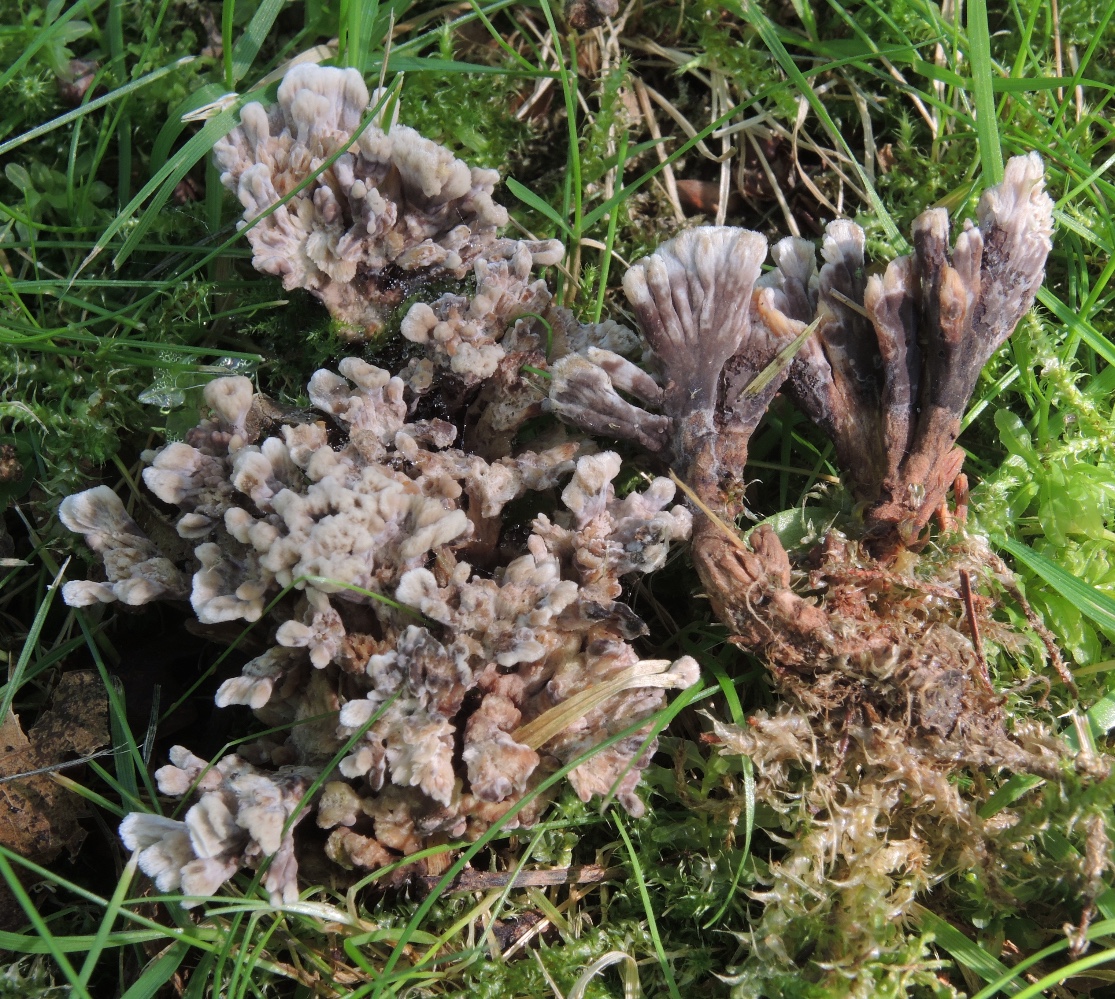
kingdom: Fungi
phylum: Basidiomycota
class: Agaricomycetes
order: Thelephorales
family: Thelephoraceae
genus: Thelephora
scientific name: Thelephora anthocephala
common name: busk-frynsesvamp
